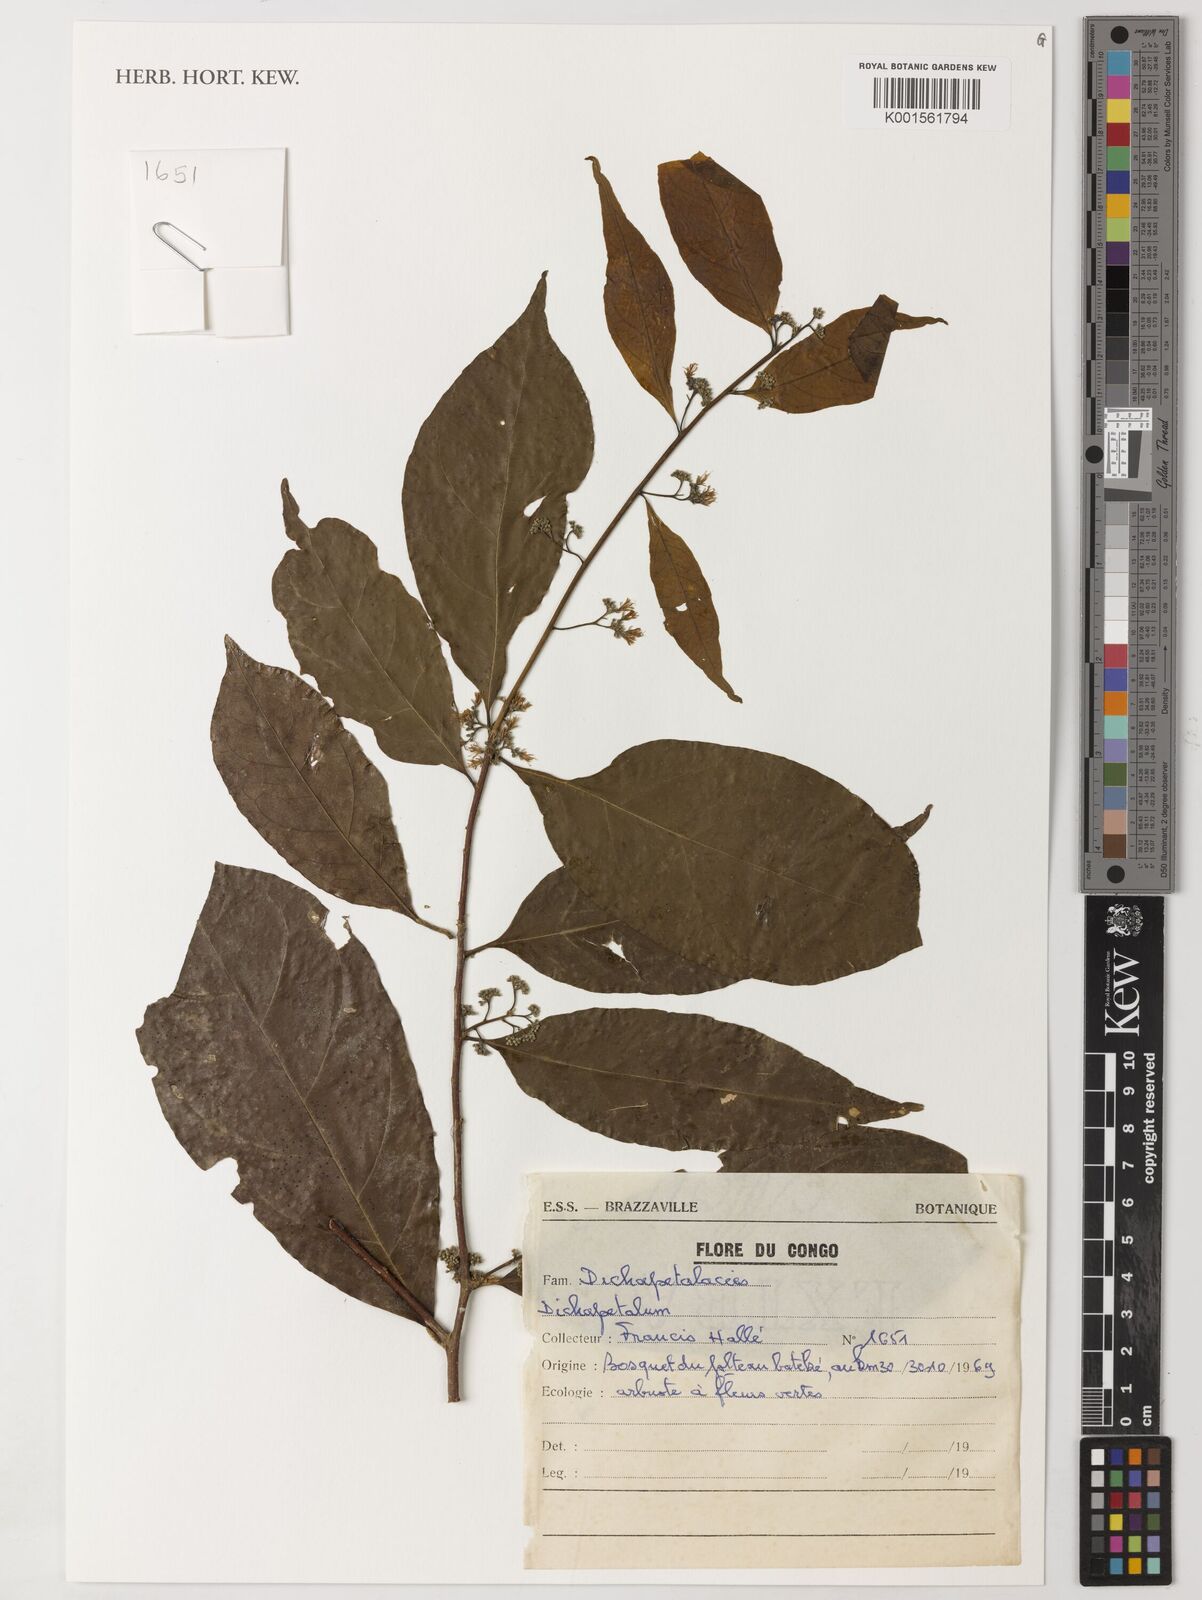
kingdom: Plantae
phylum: Tracheophyta
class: Magnoliopsida
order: Malpighiales
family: Dichapetalaceae
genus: Dichapetalum
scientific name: Dichapetalum
